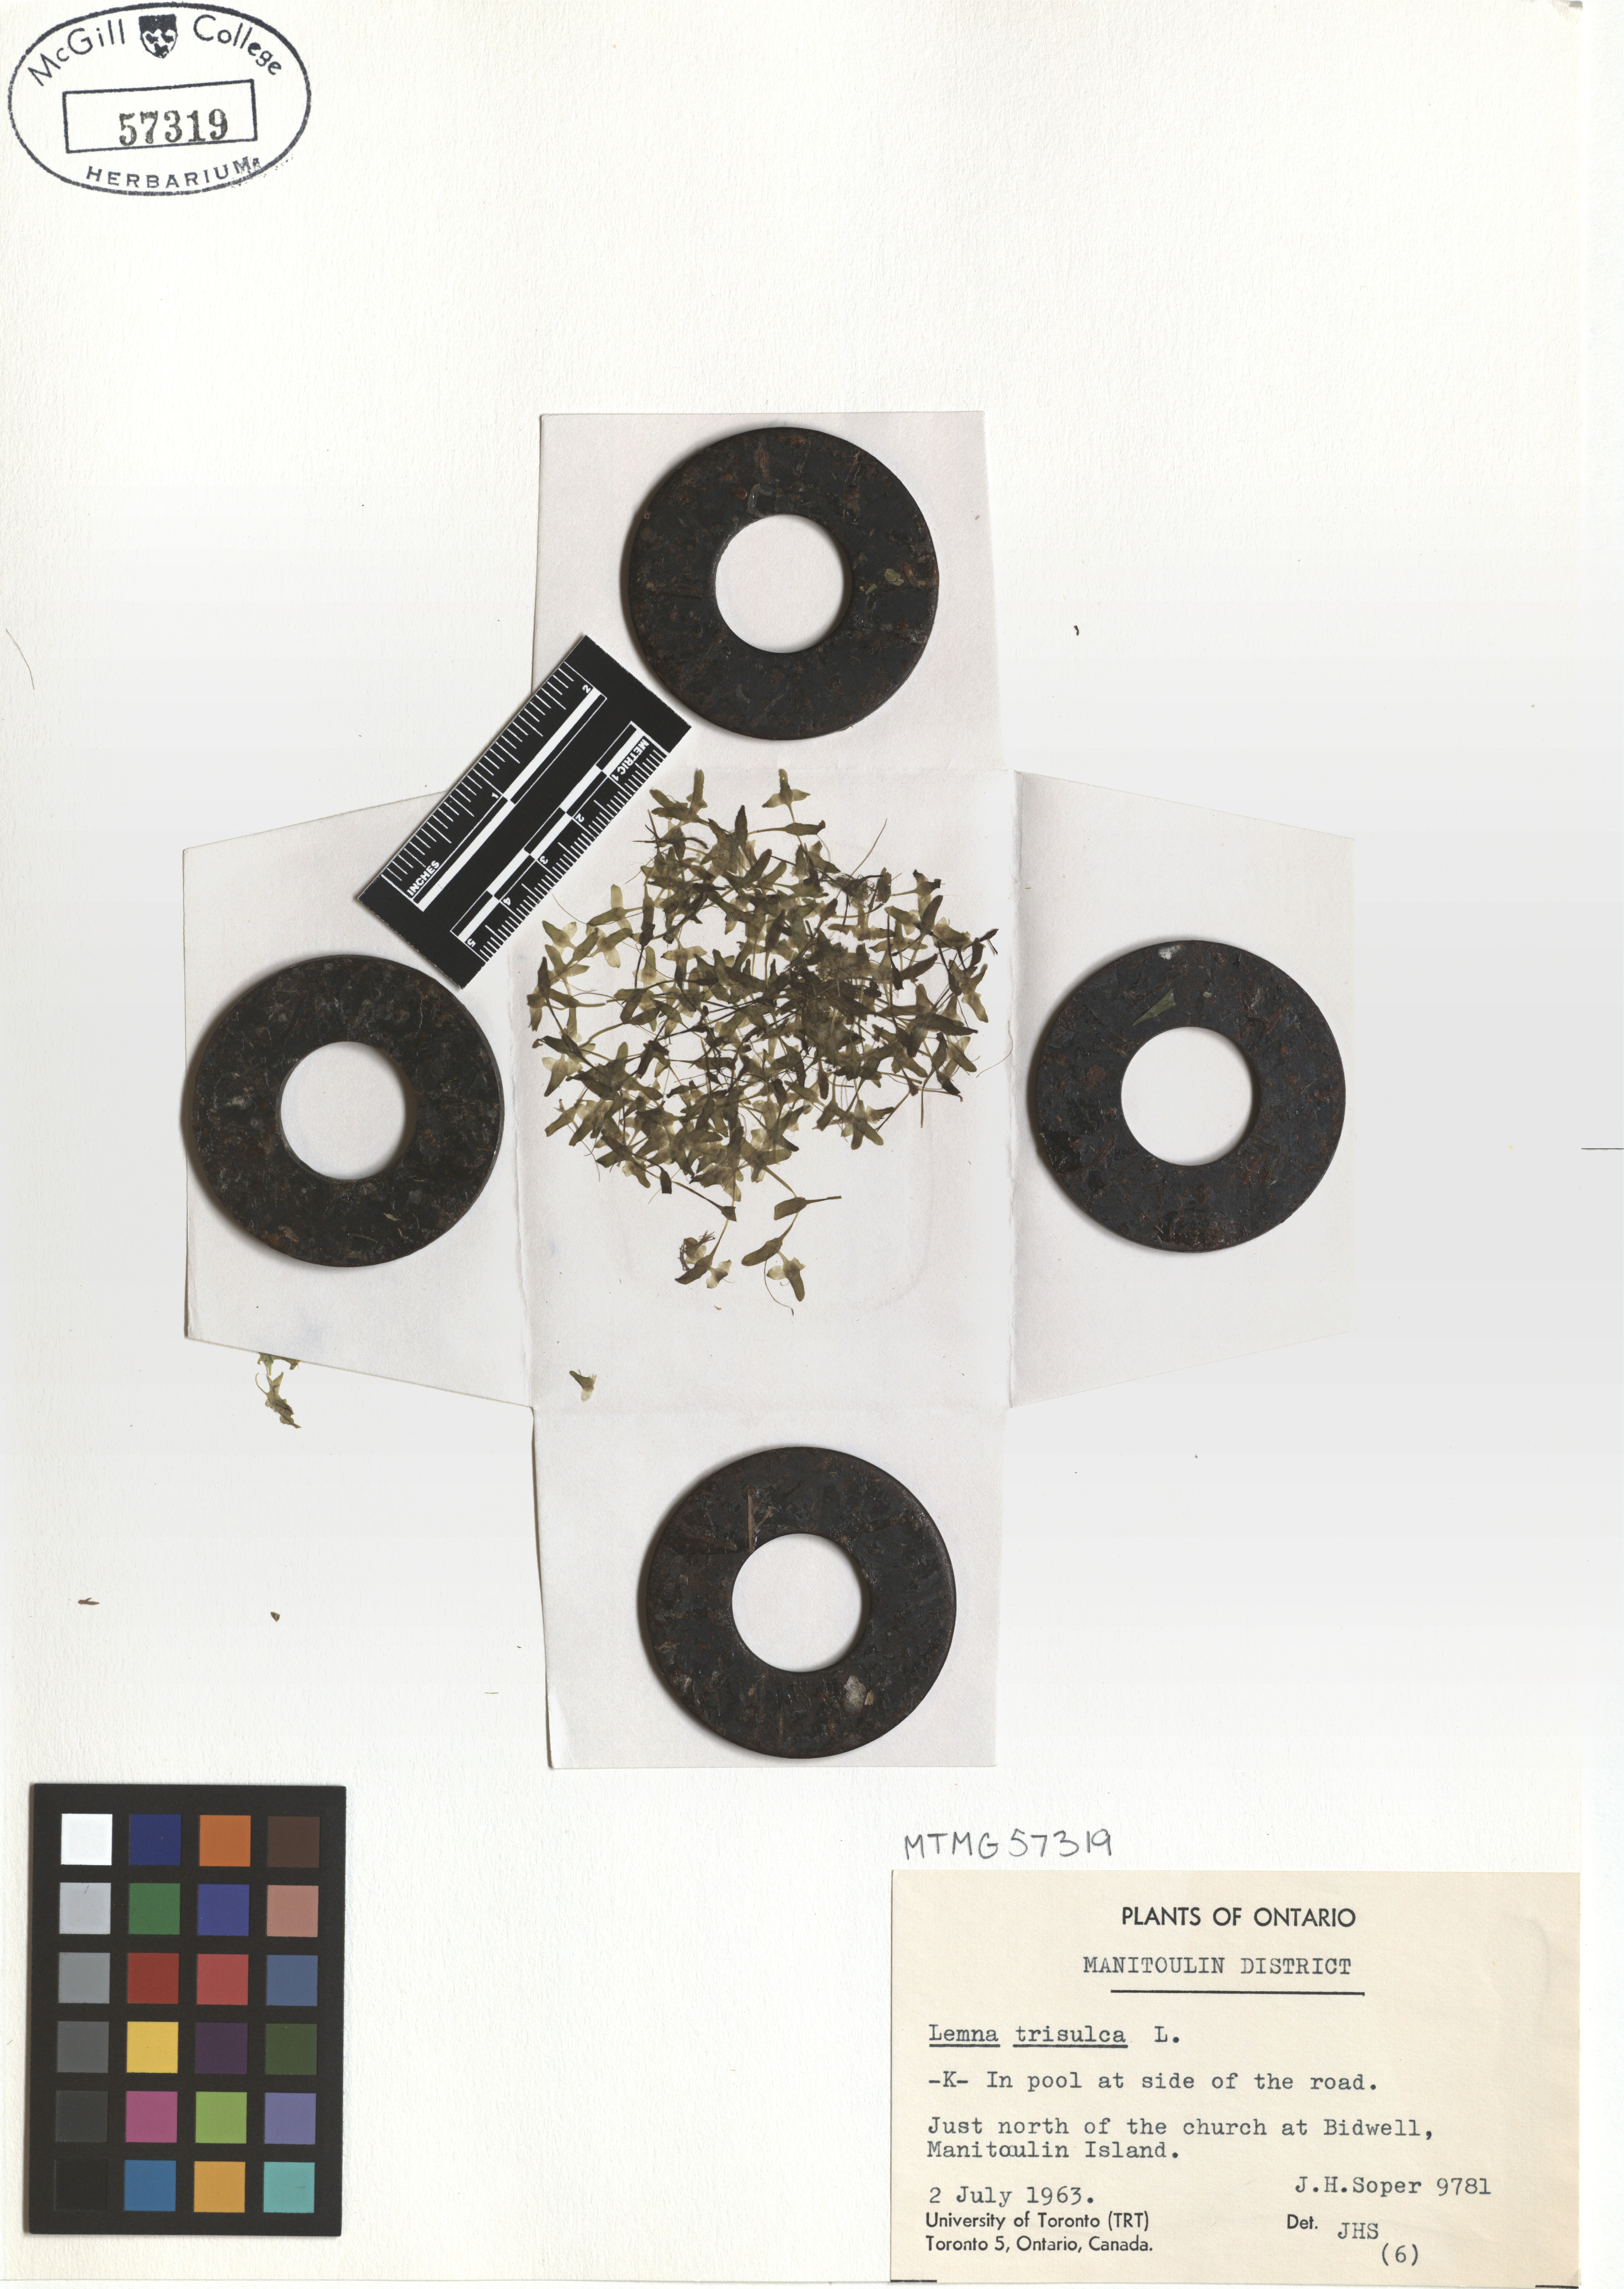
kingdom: Plantae
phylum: Tracheophyta
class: Liliopsida
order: Alismatales
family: Araceae
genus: Lemna
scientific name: Lemna trisulca
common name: Ivy-leaved duckweed
